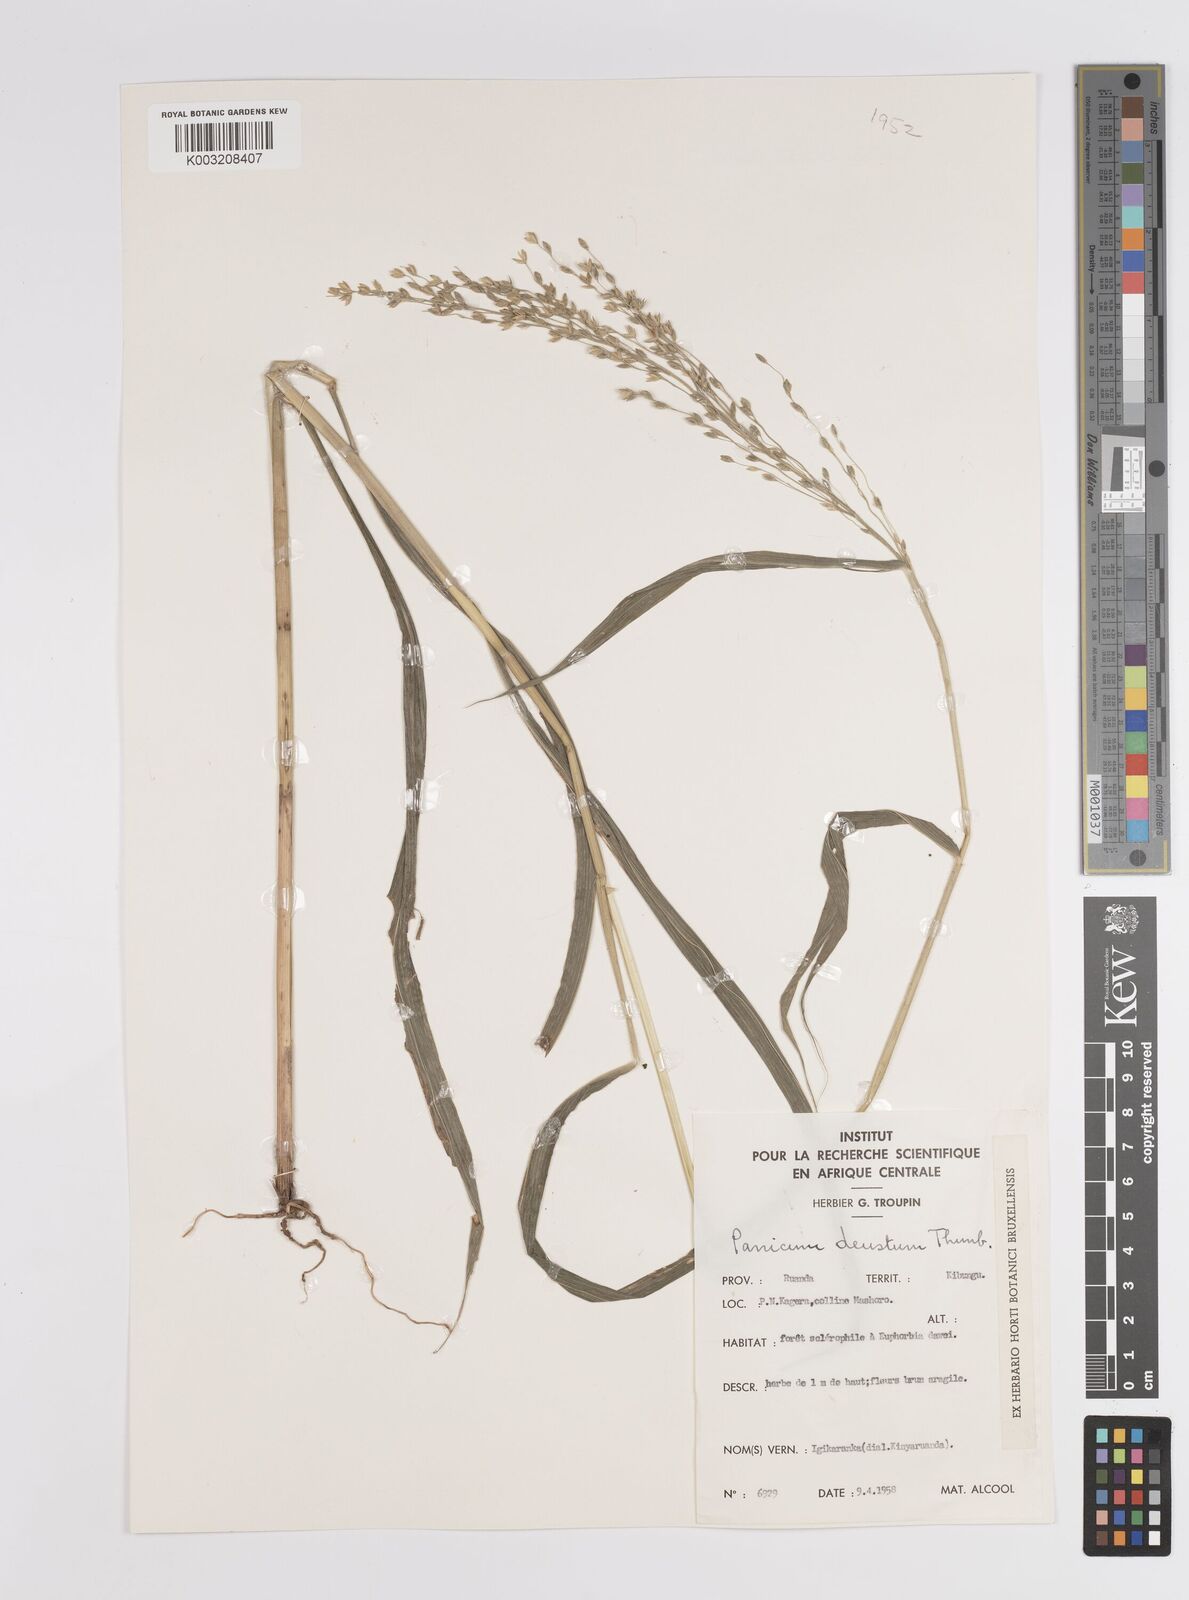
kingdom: Plantae
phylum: Tracheophyta
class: Liliopsida
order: Poales
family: Poaceae
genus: Panicum
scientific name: Panicum deustum
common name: Reed panicum
